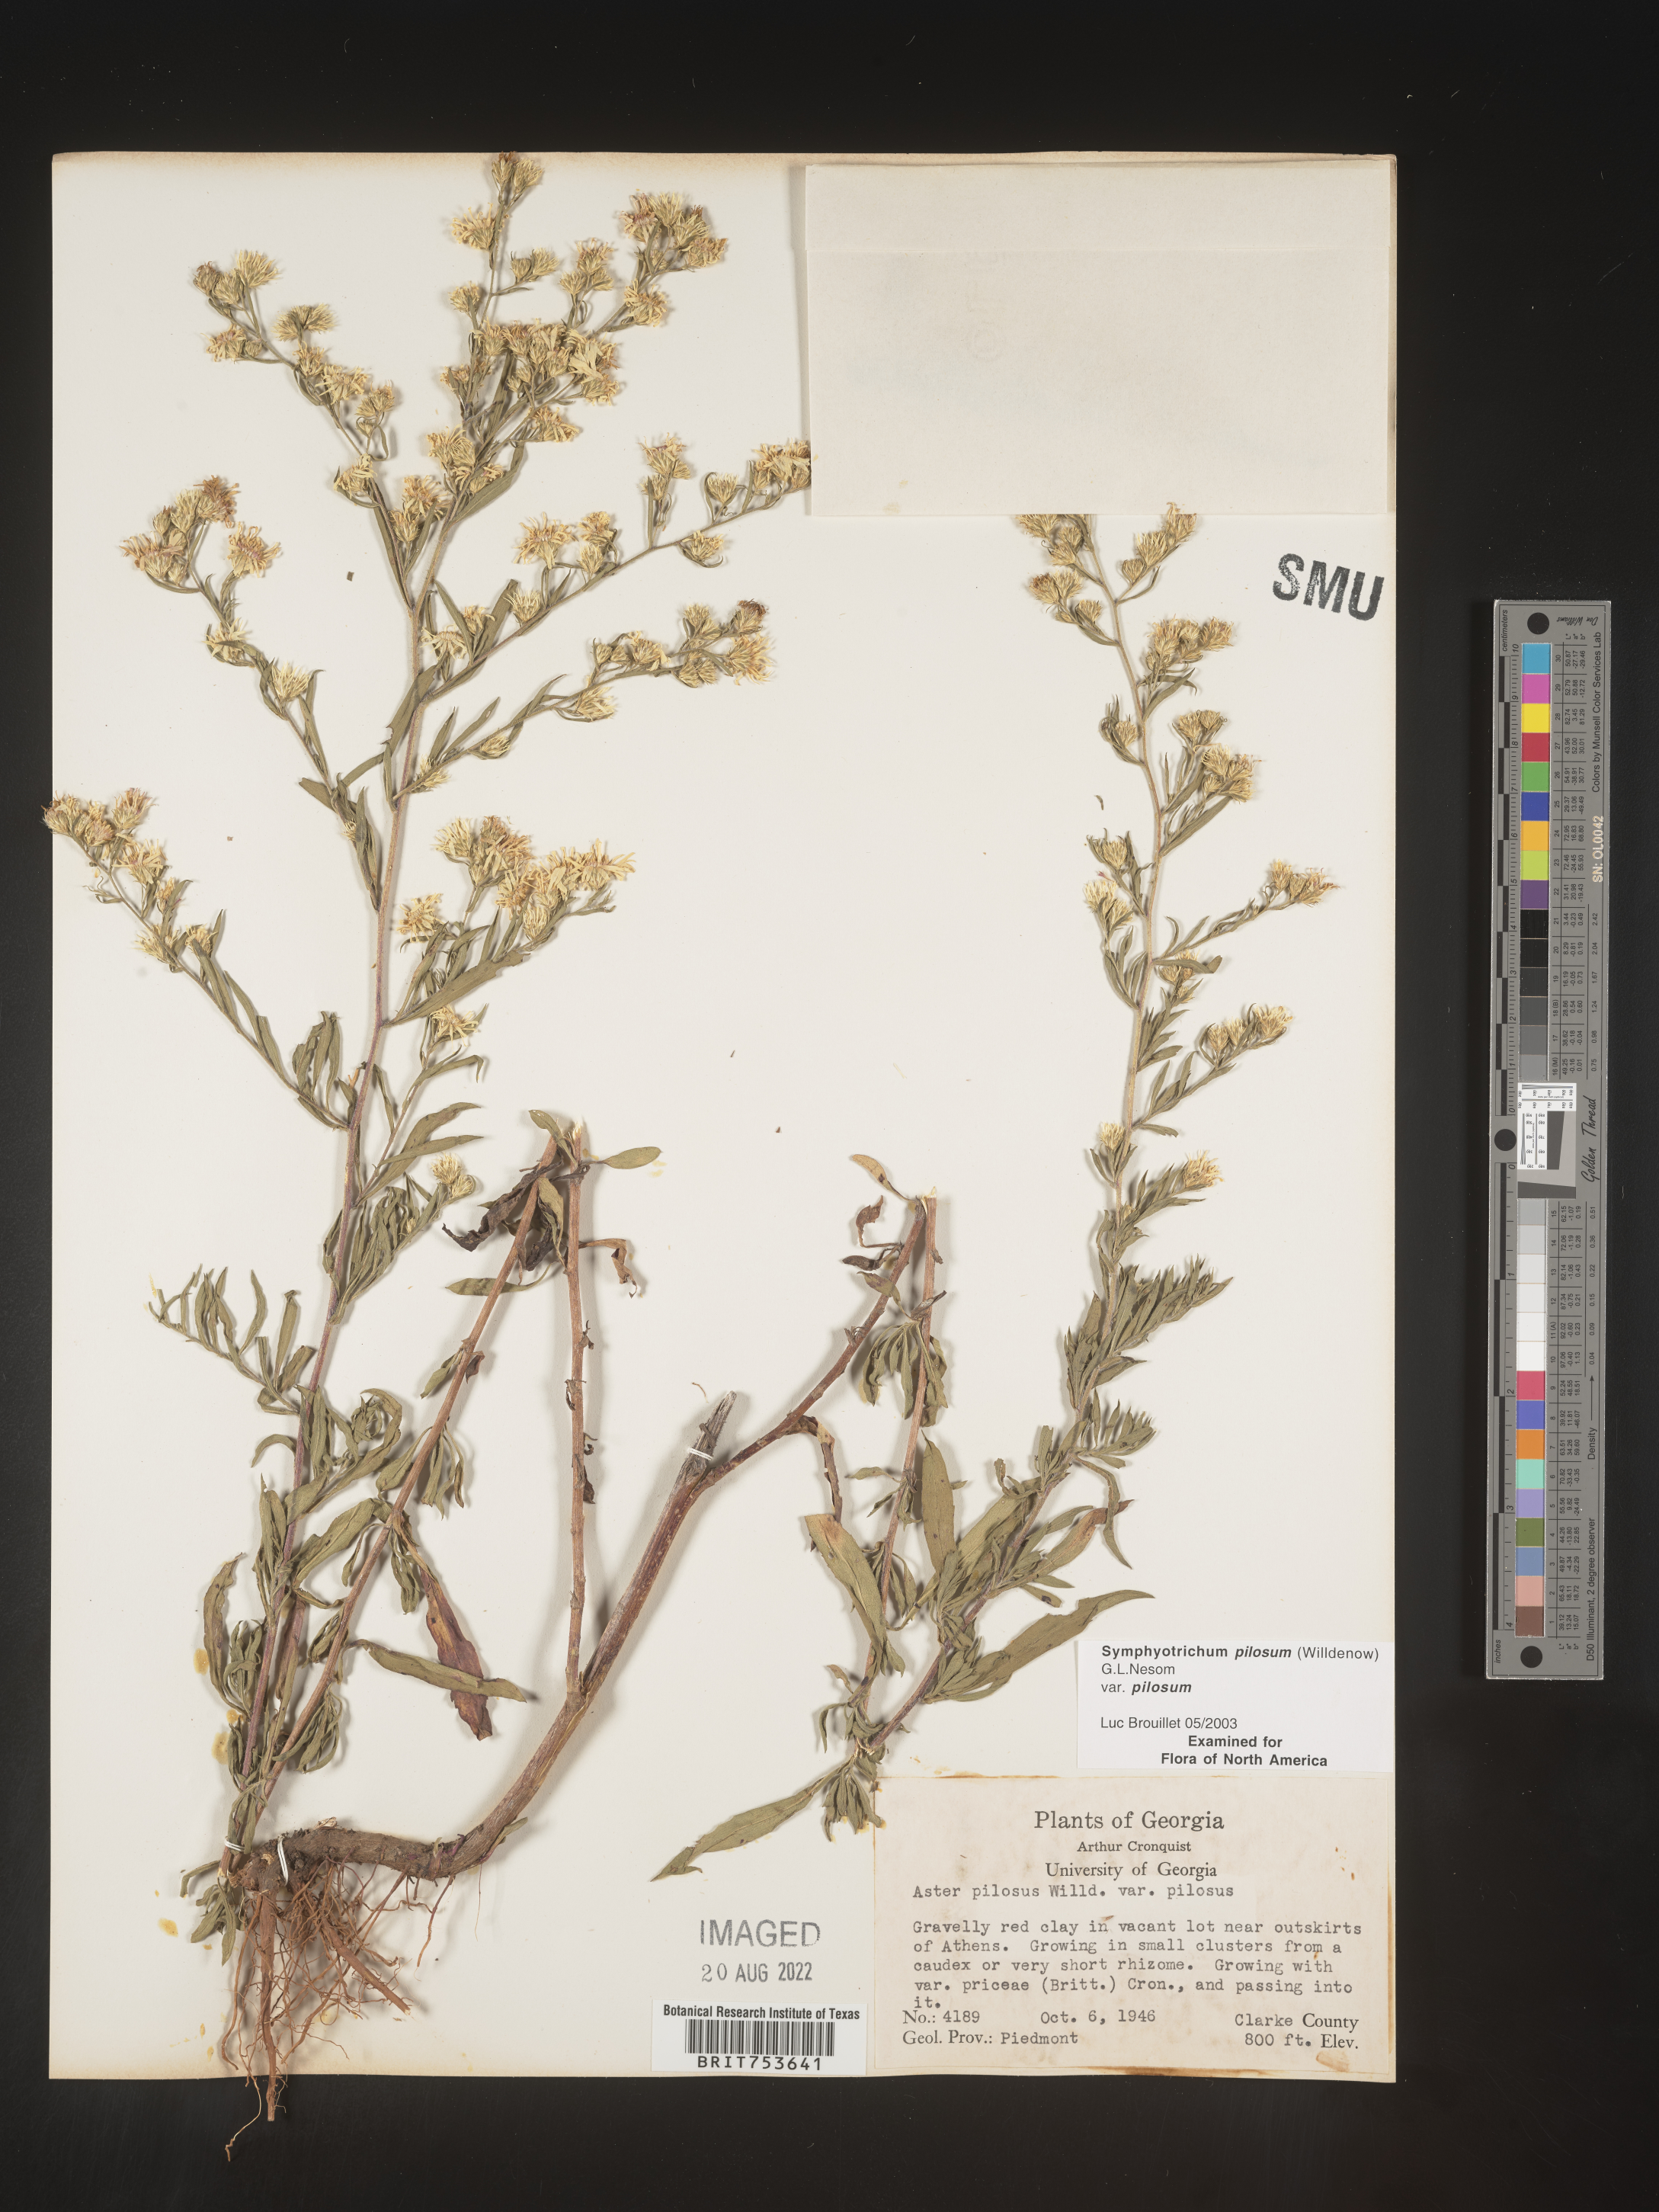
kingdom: Plantae
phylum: Tracheophyta
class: Magnoliopsida
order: Asterales
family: Asteraceae
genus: Symphyotrichum
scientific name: Symphyotrichum pilosum
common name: Awl aster
